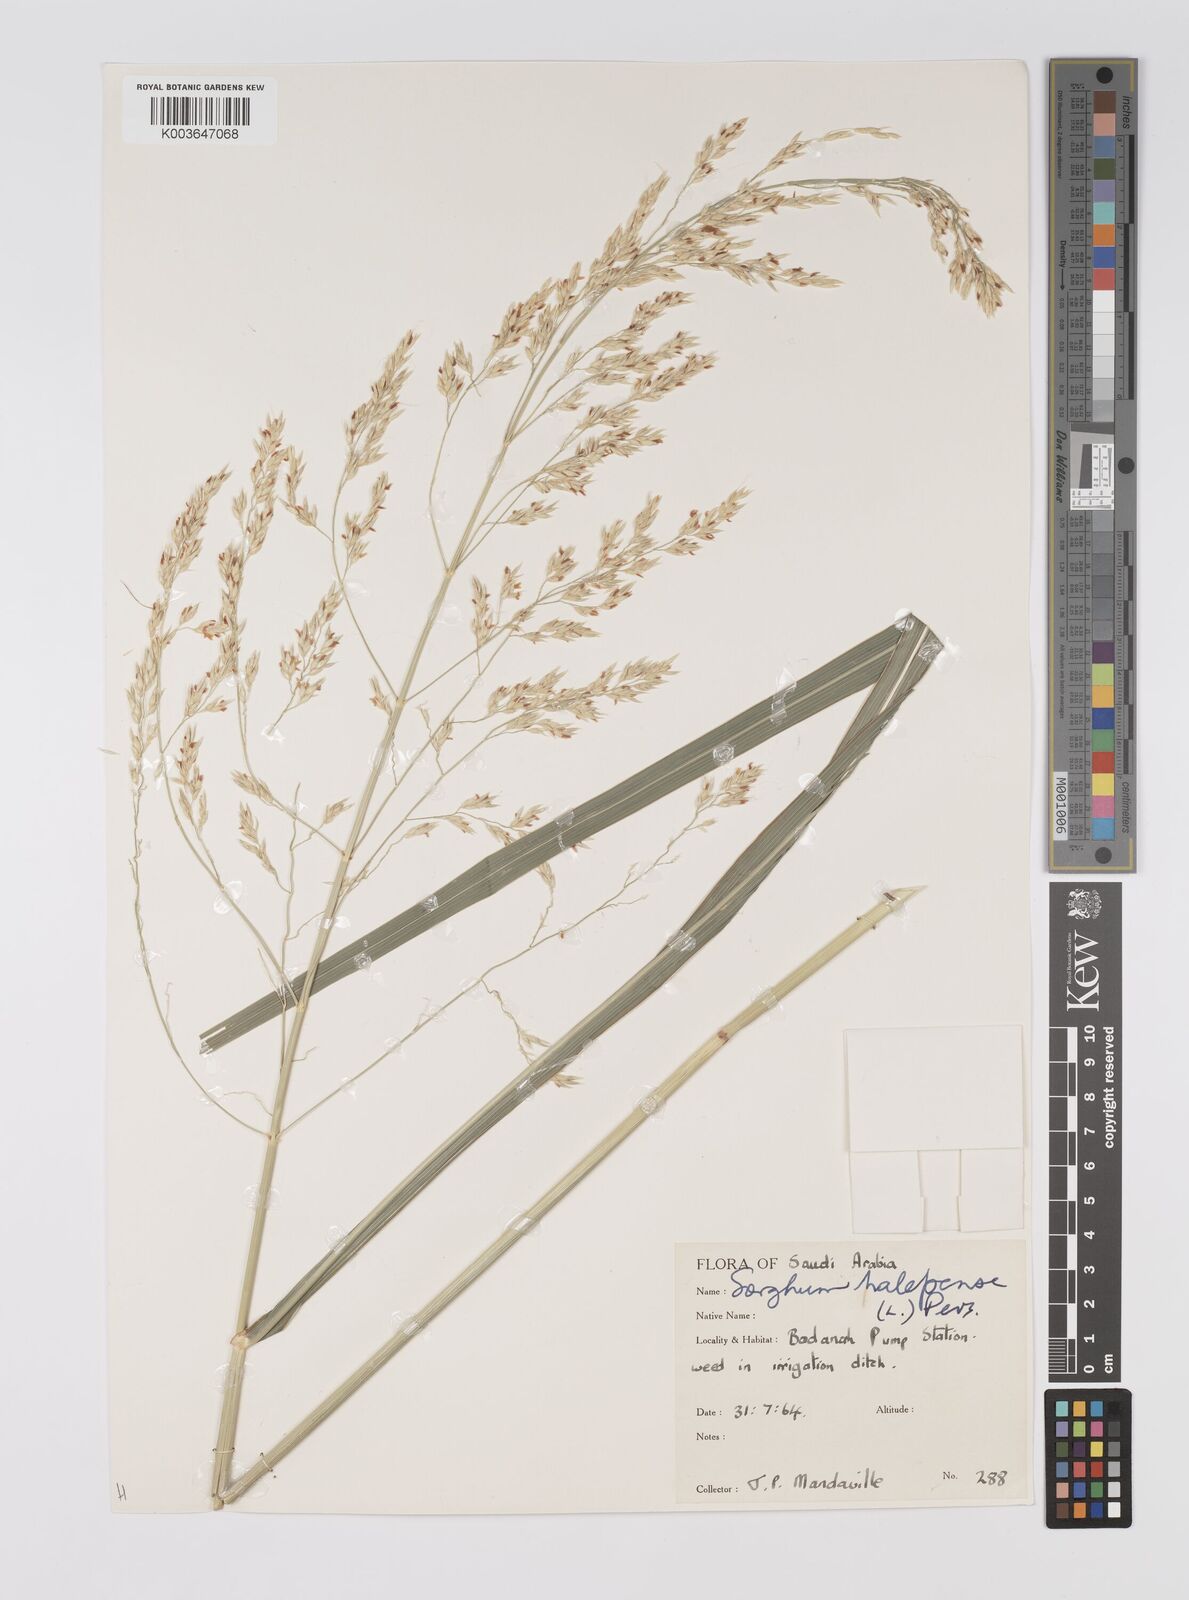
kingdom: Plantae
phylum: Tracheophyta
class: Liliopsida
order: Poales
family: Poaceae
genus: Sorghum
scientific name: Sorghum halepense
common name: Johnson-grass
